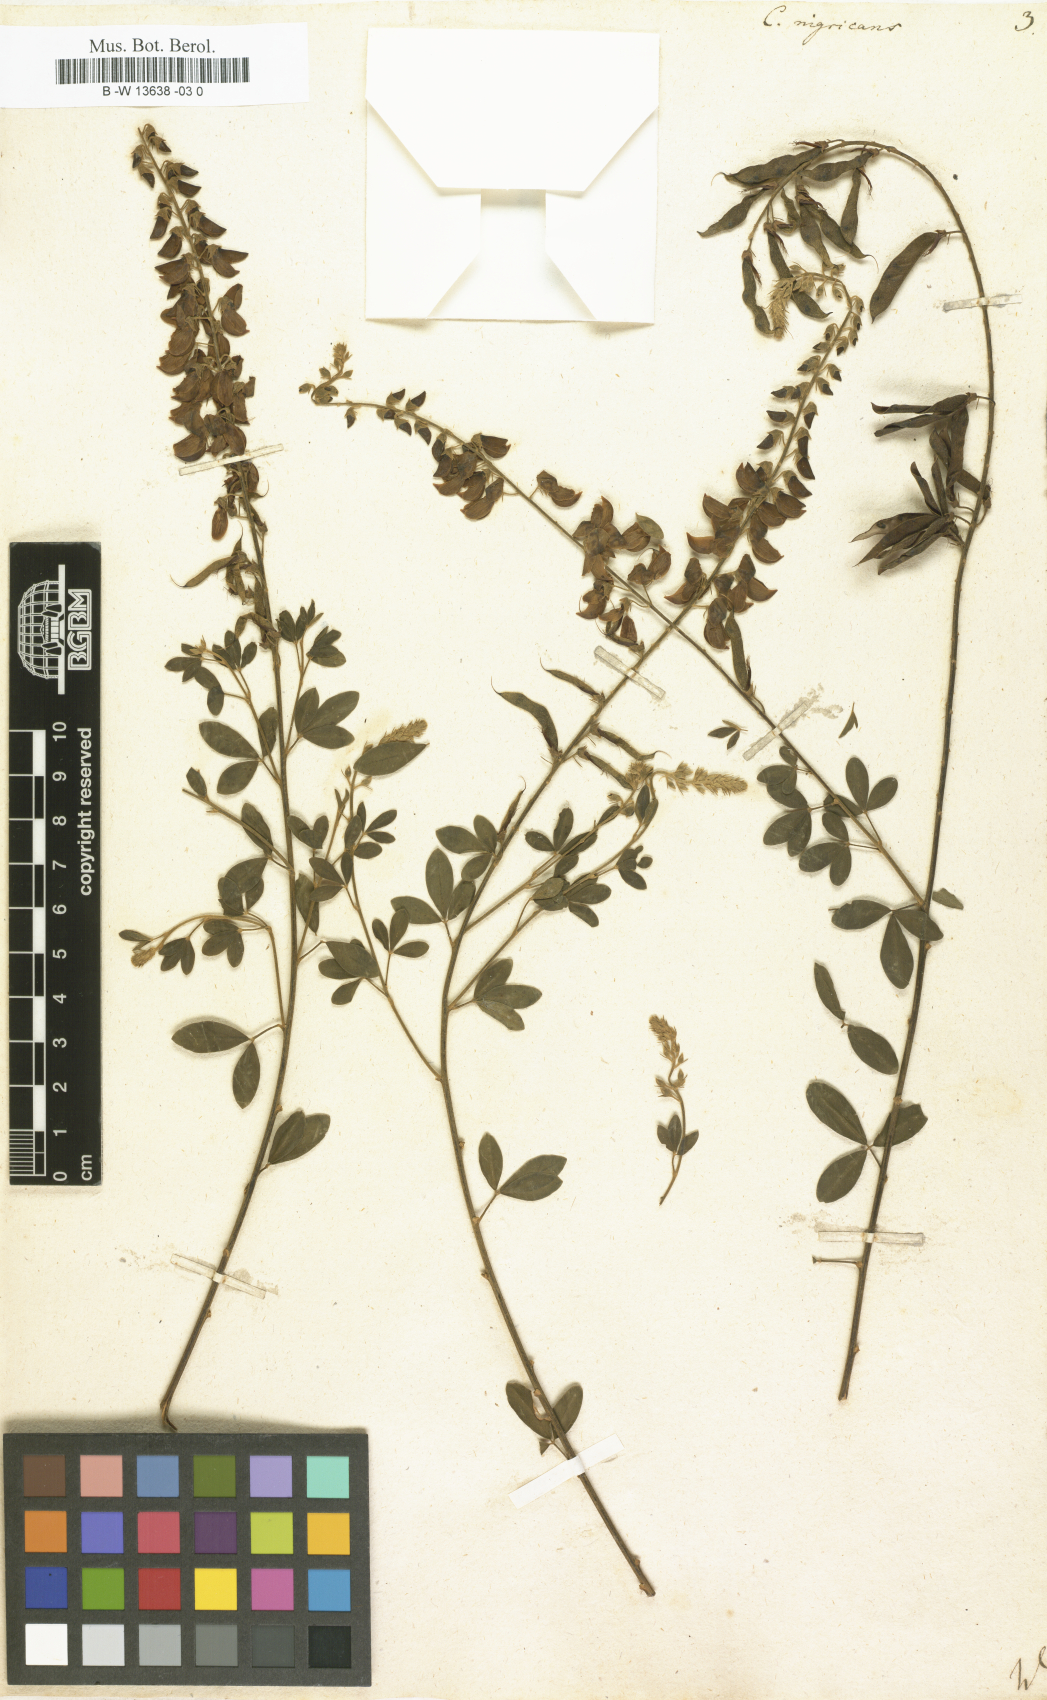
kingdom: Plantae
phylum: Tracheophyta
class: Magnoliopsida
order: Fabales
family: Fabaceae
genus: Cytisus
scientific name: Cytisus nigricans
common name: Black broom
